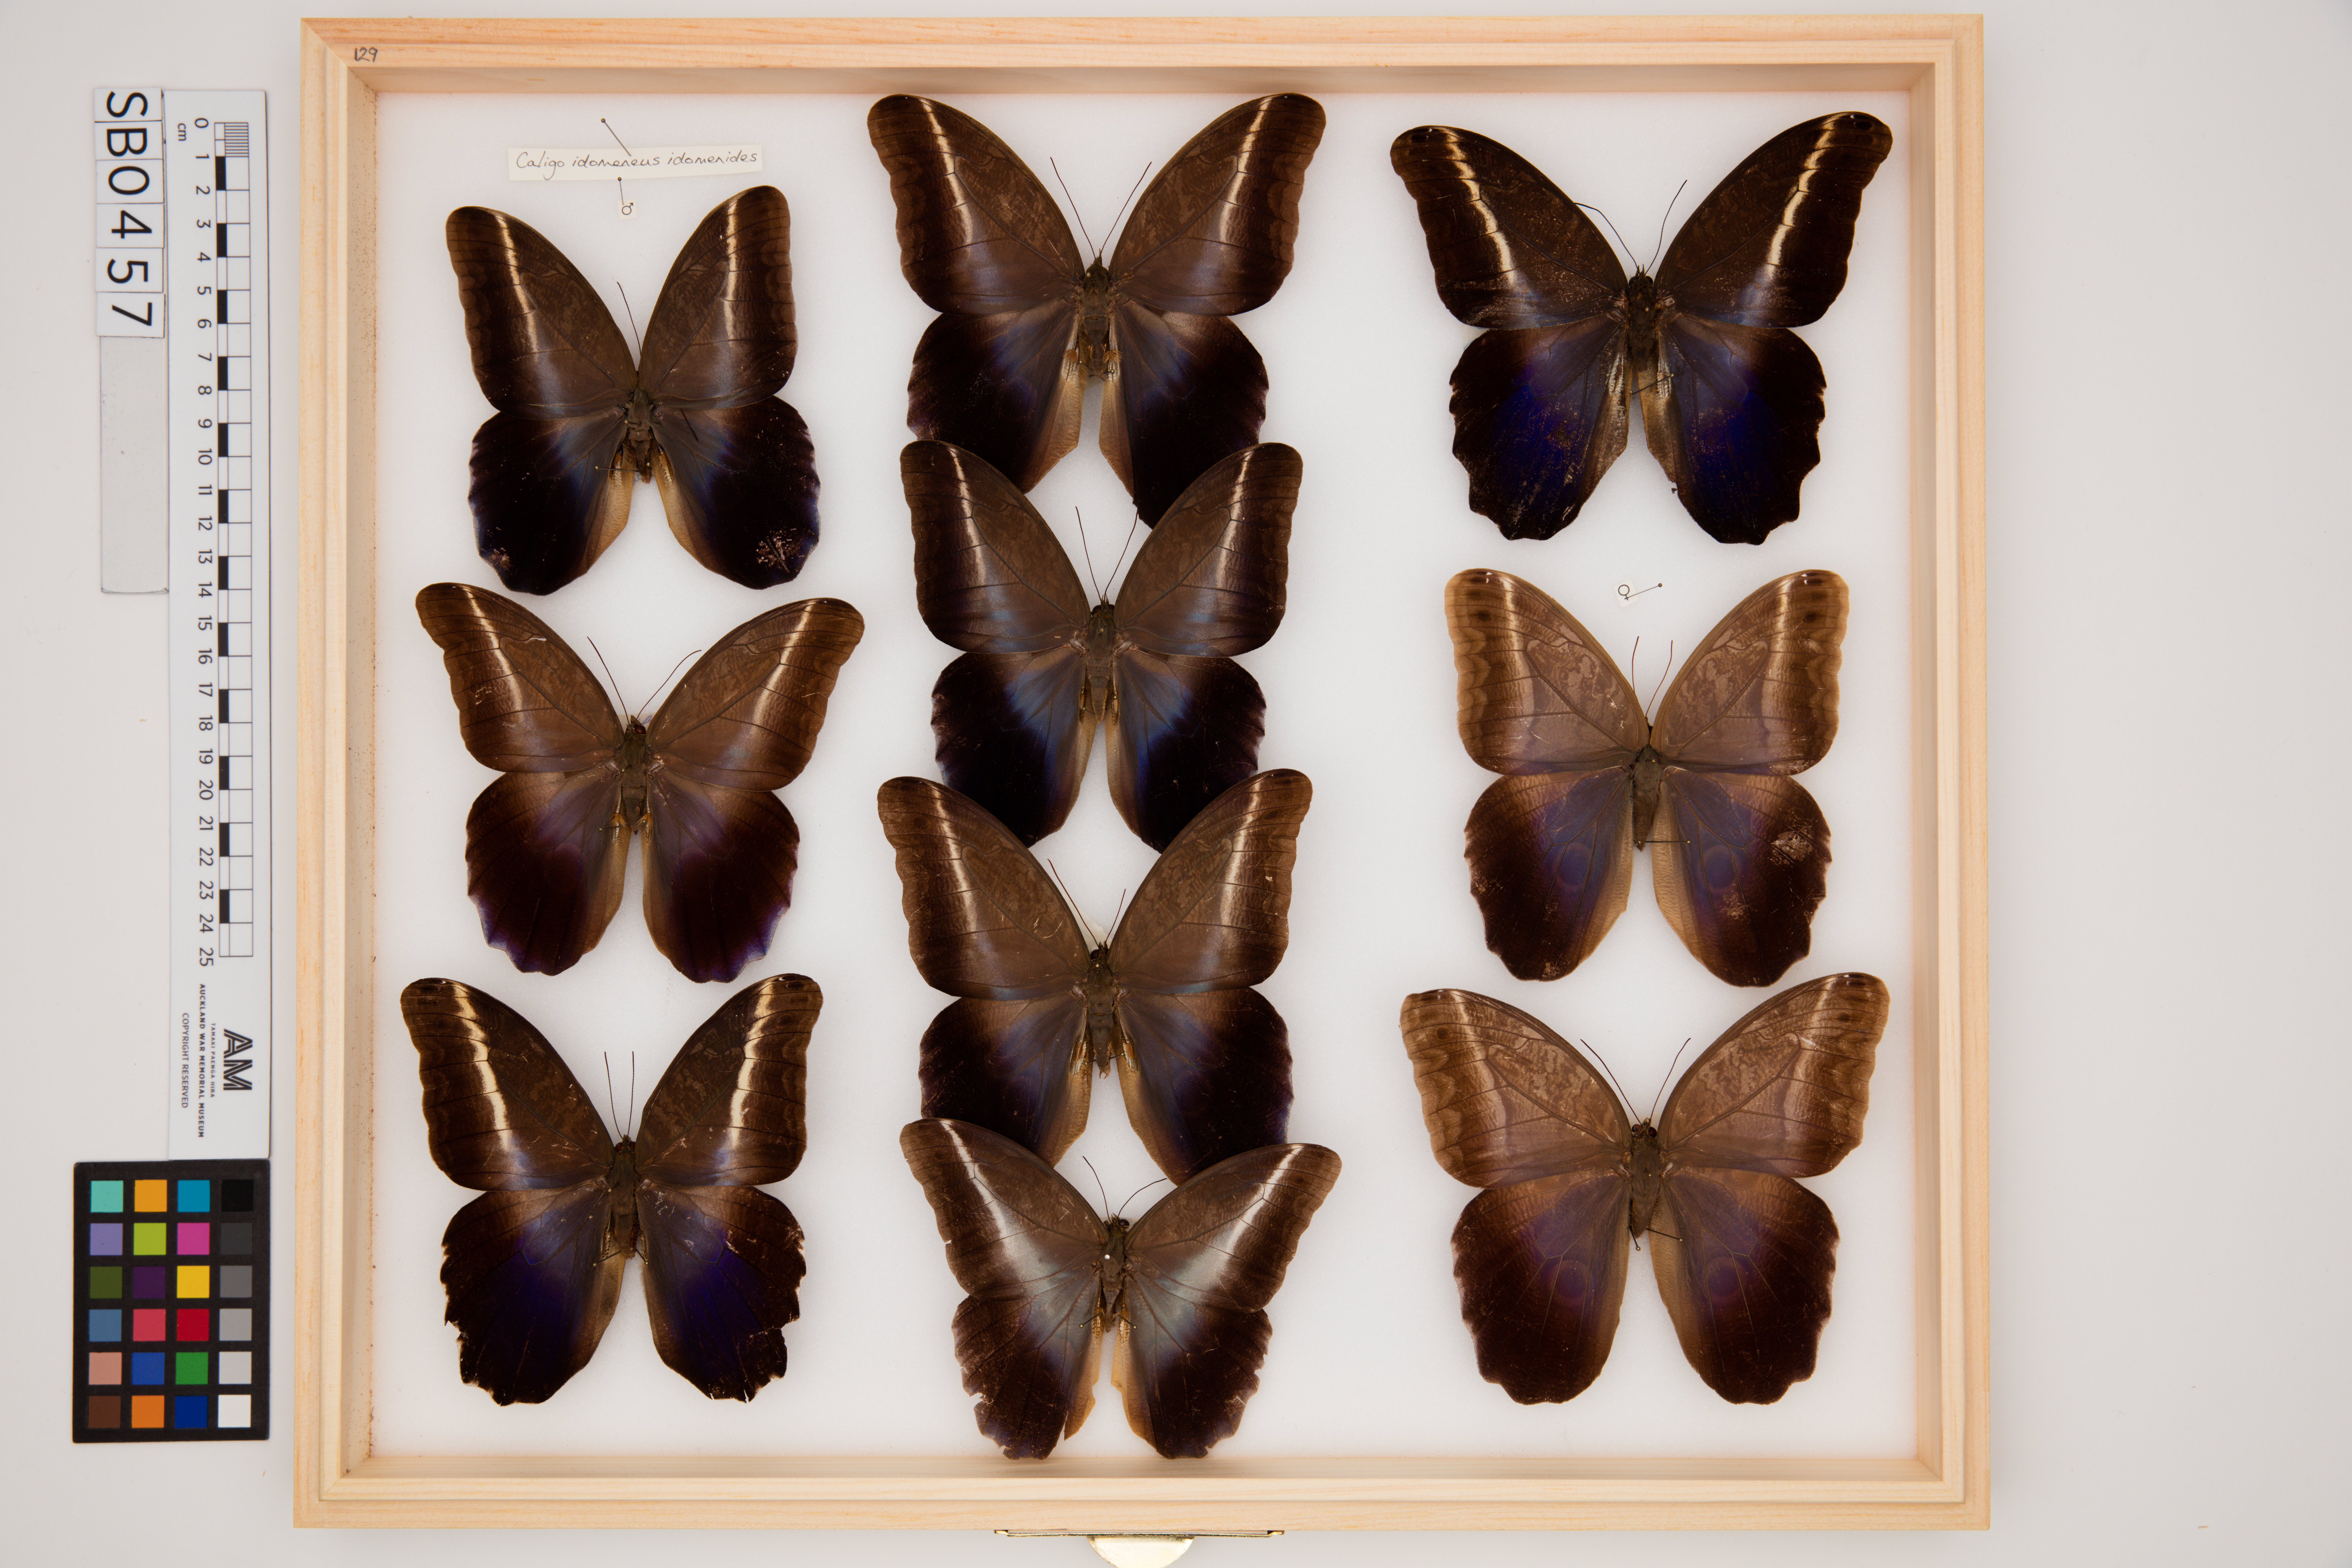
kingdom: Animalia
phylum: Arthropoda
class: Insecta
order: Lepidoptera
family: Nymphalidae
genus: Caligo
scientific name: Caligo idomeneus
